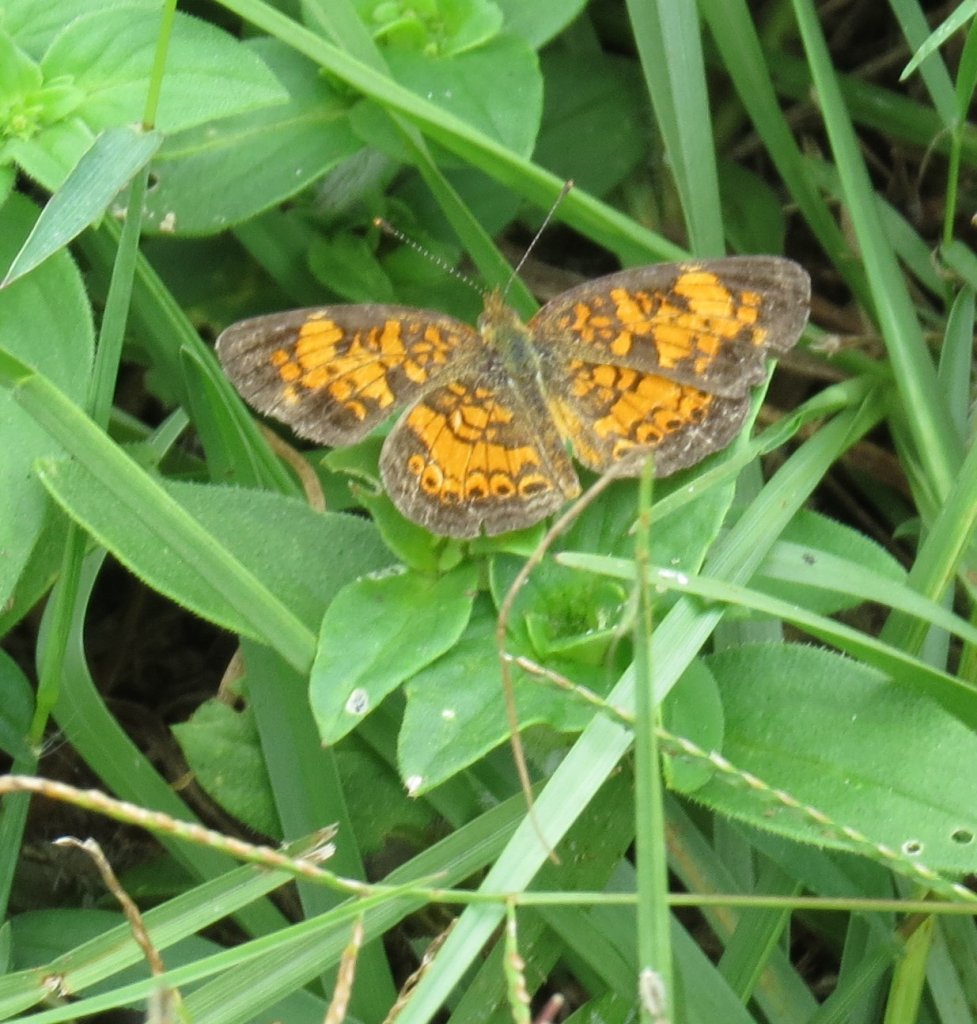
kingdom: Animalia
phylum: Arthropoda
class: Insecta
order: Lepidoptera
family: Nymphalidae
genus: Phyciodes
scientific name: Phyciodes tharos
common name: Pearl Crescent
